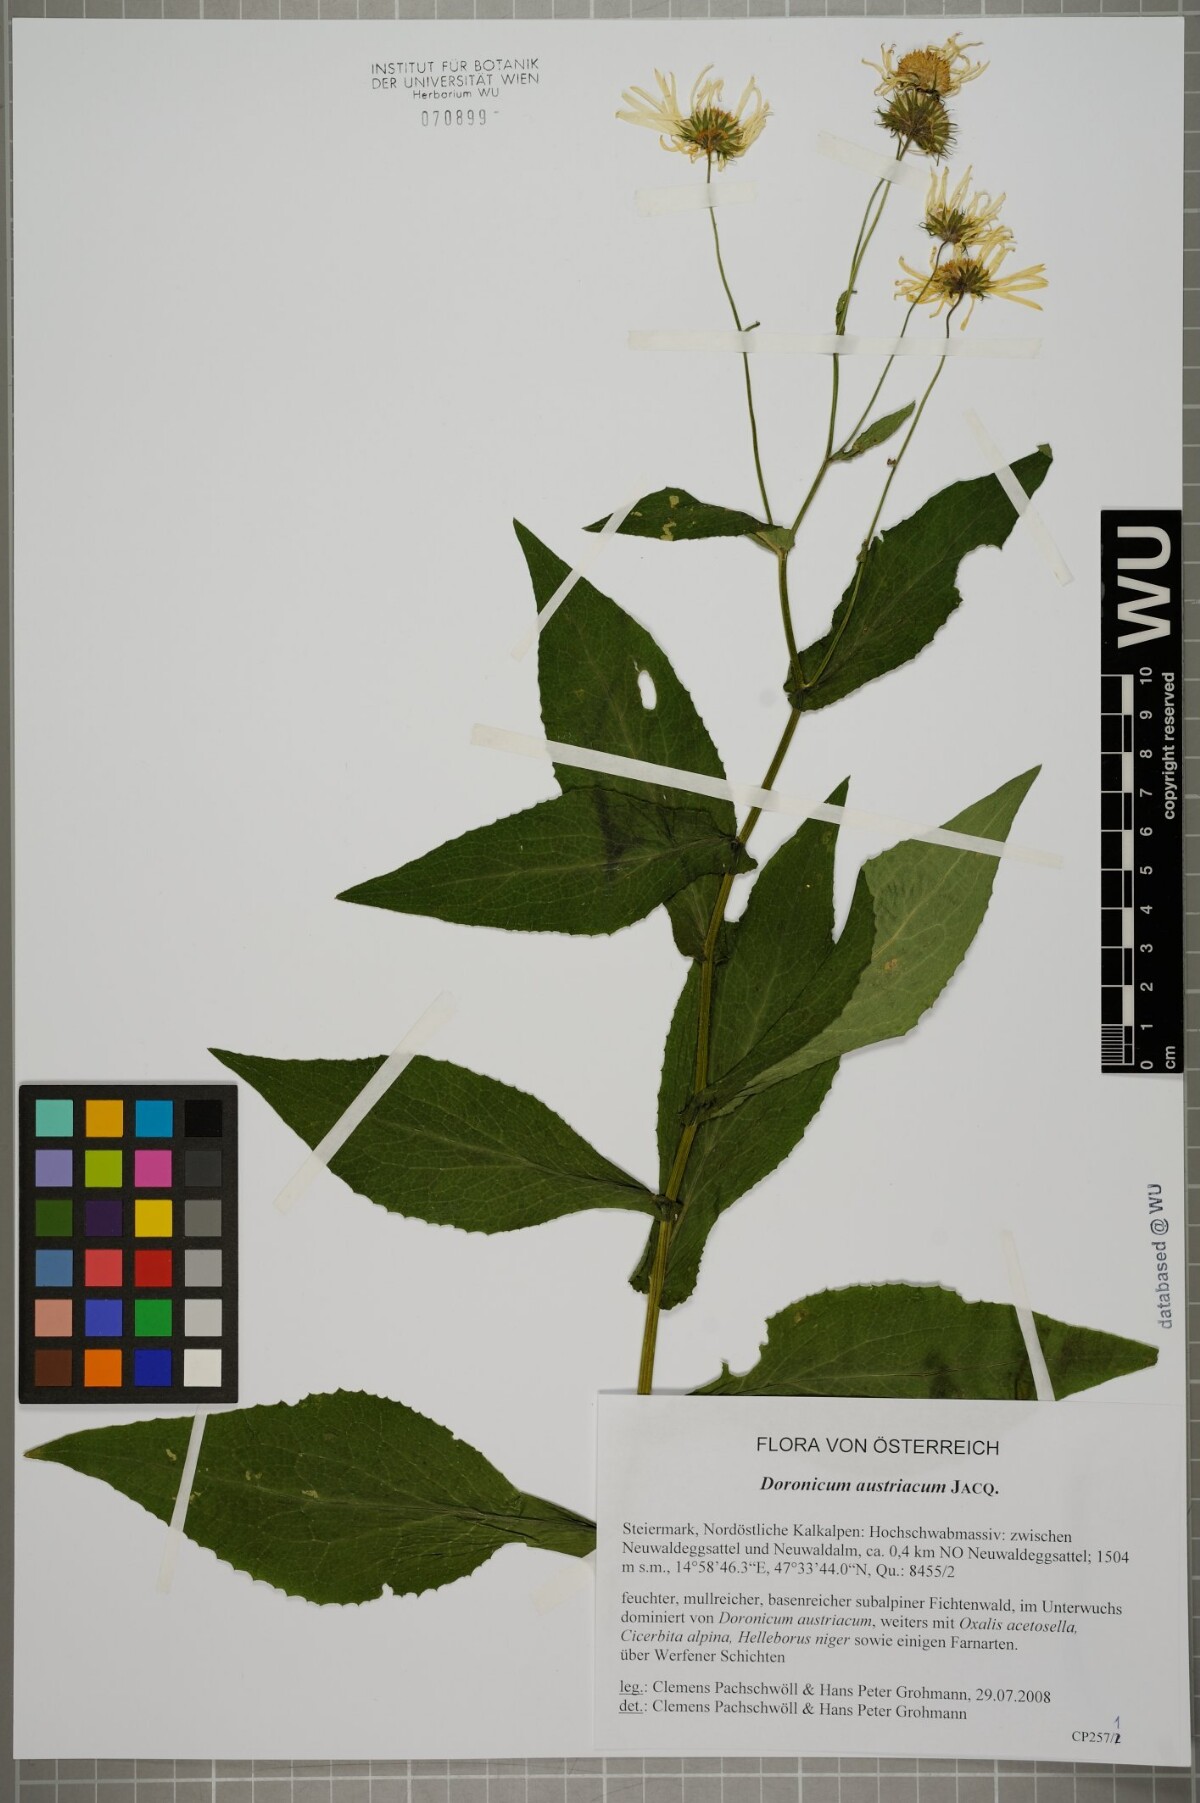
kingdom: Plantae
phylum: Tracheophyta
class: Magnoliopsida
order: Asterales
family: Asteraceae
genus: Doronicum
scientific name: Doronicum austriacum
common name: Austrian leopard's-bane
